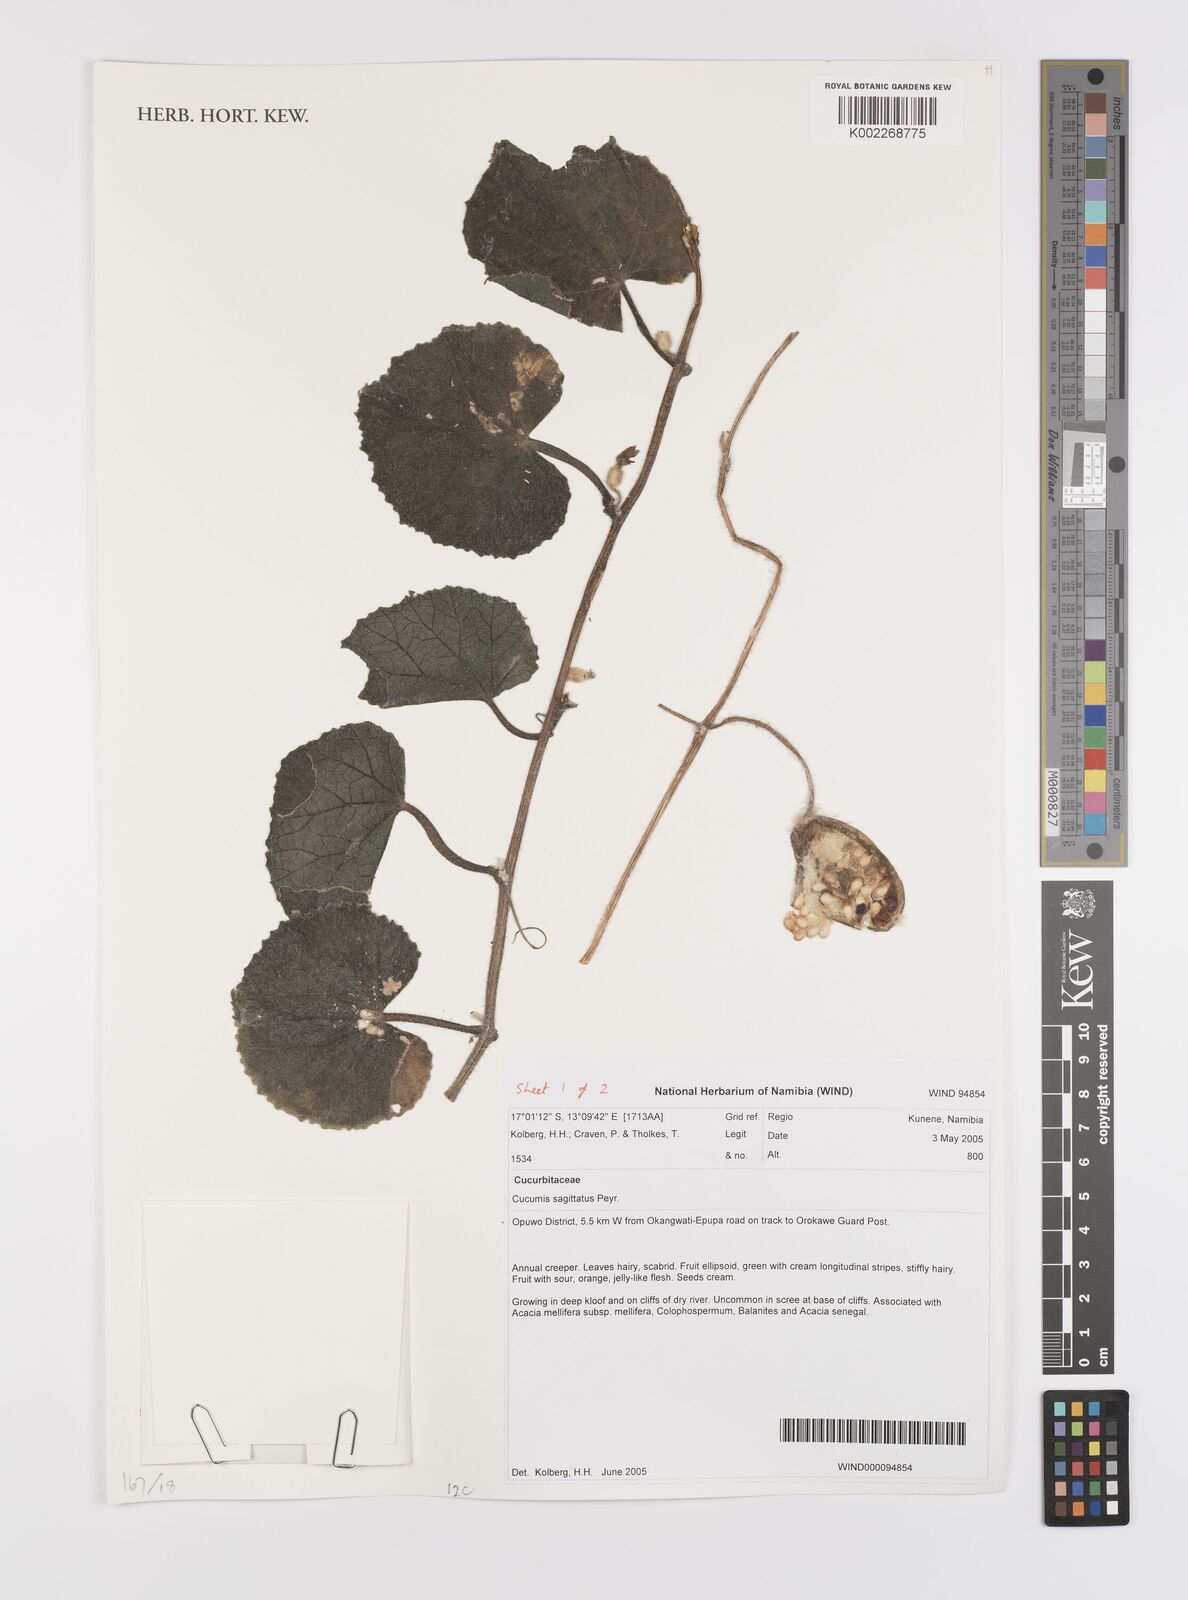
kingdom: Plantae
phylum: Tracheophyta
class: Magnoliopsida
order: Cucurbitales
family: Cucurbitaceae
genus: Cucumis
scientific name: Cucumis sagittatus
